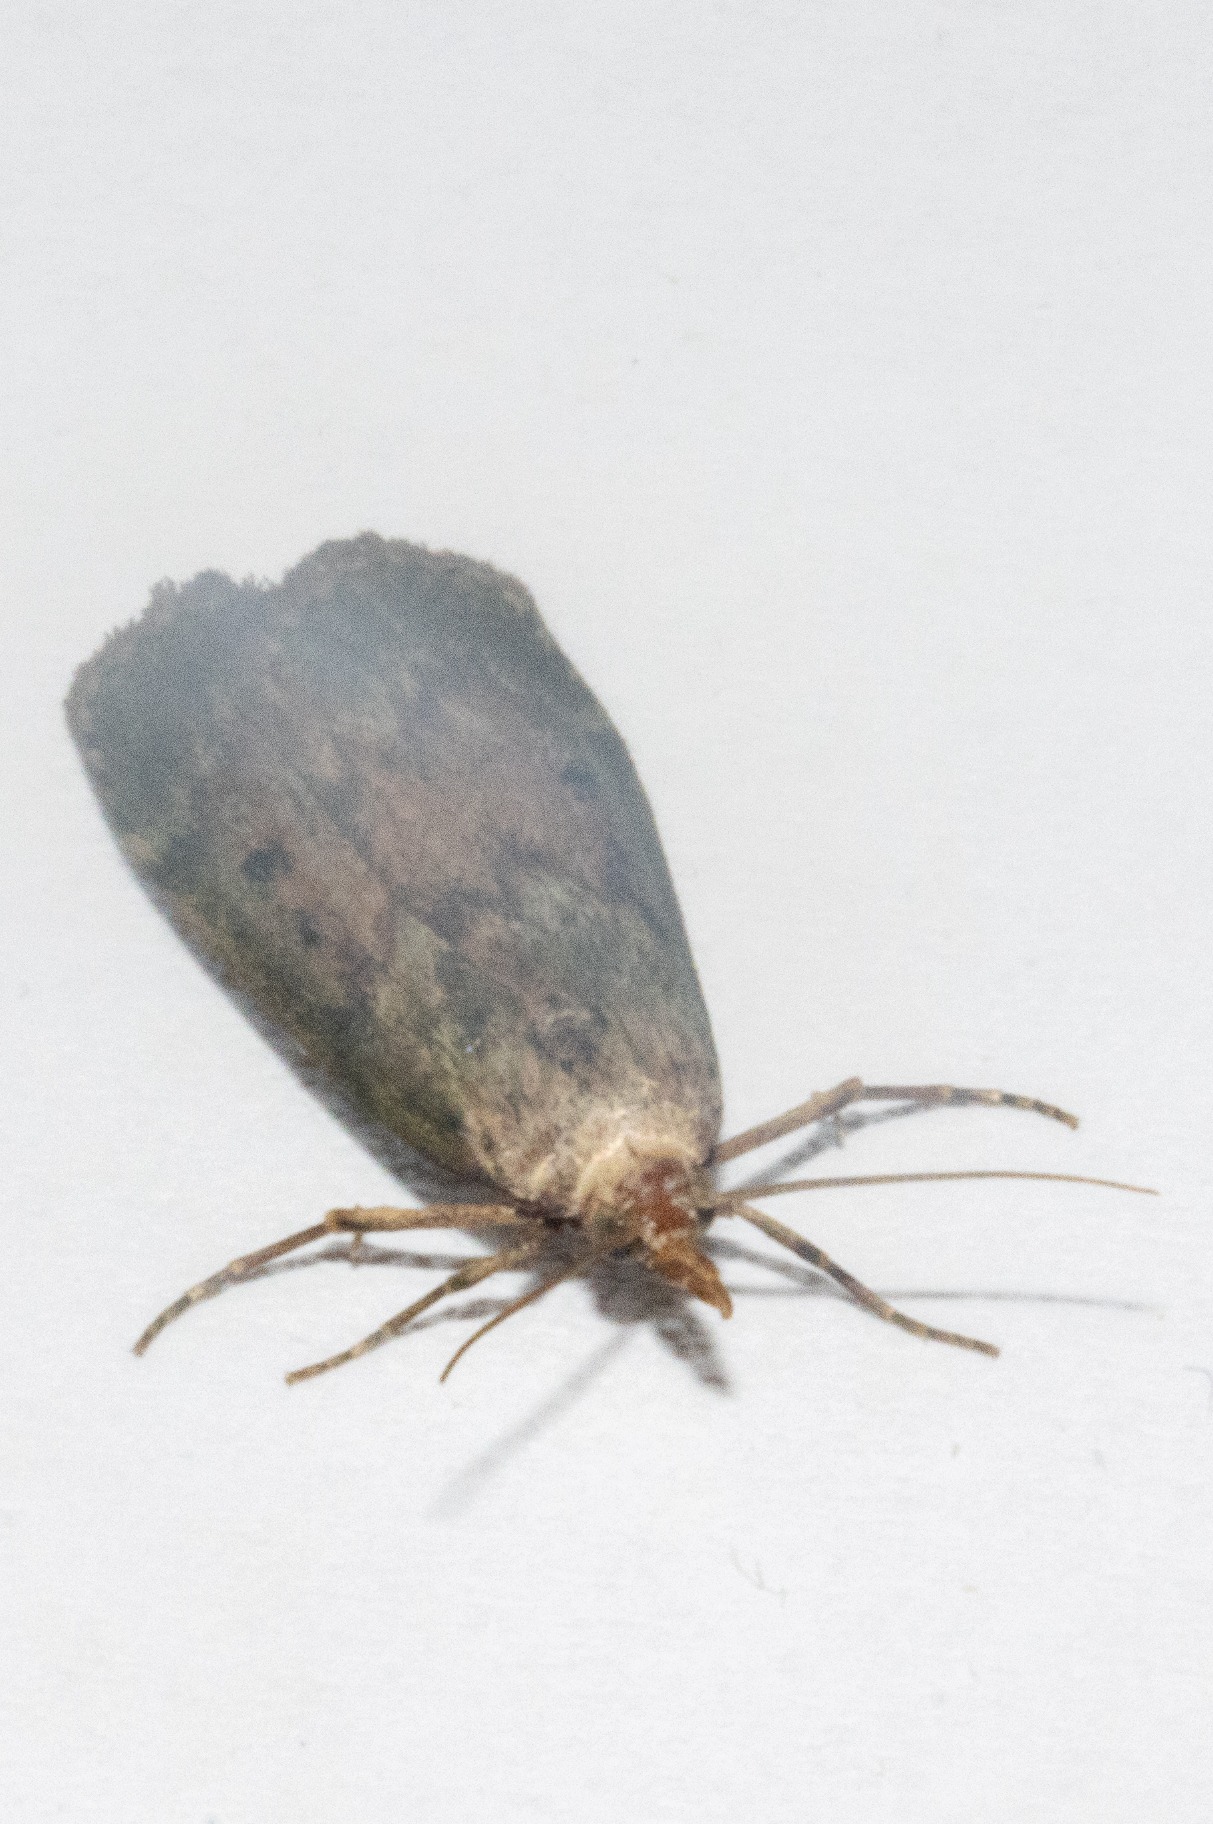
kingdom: Animalia
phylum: Arthropoda
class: Insecta
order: Lepidoptera
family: Pyralidae
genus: Aphomia
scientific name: Aphomia sociella
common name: Humlevoksmøl
